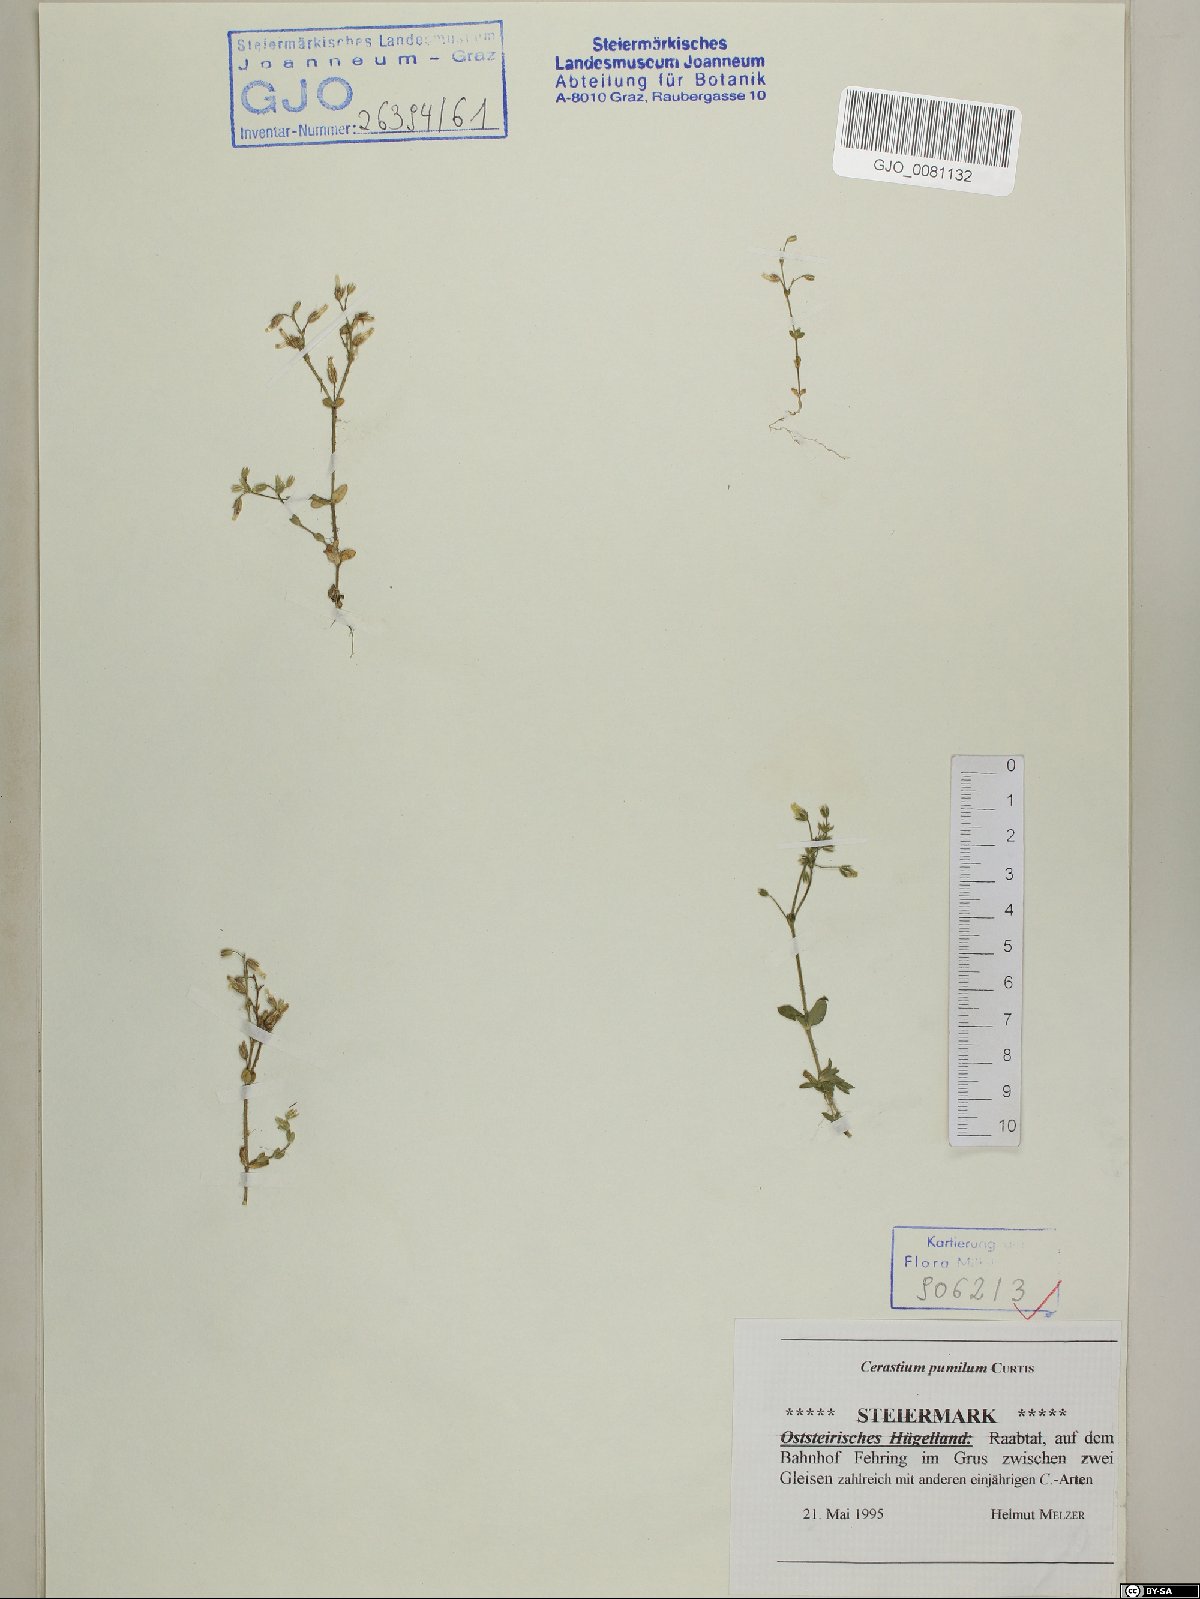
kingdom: Plantae
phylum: Tracheophyta
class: Magnoliopsida
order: Caryophyllales
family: Caryophyllaceae
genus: Cerastium
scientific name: Cerastium pumilum
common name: Dwarf mouse-ear
